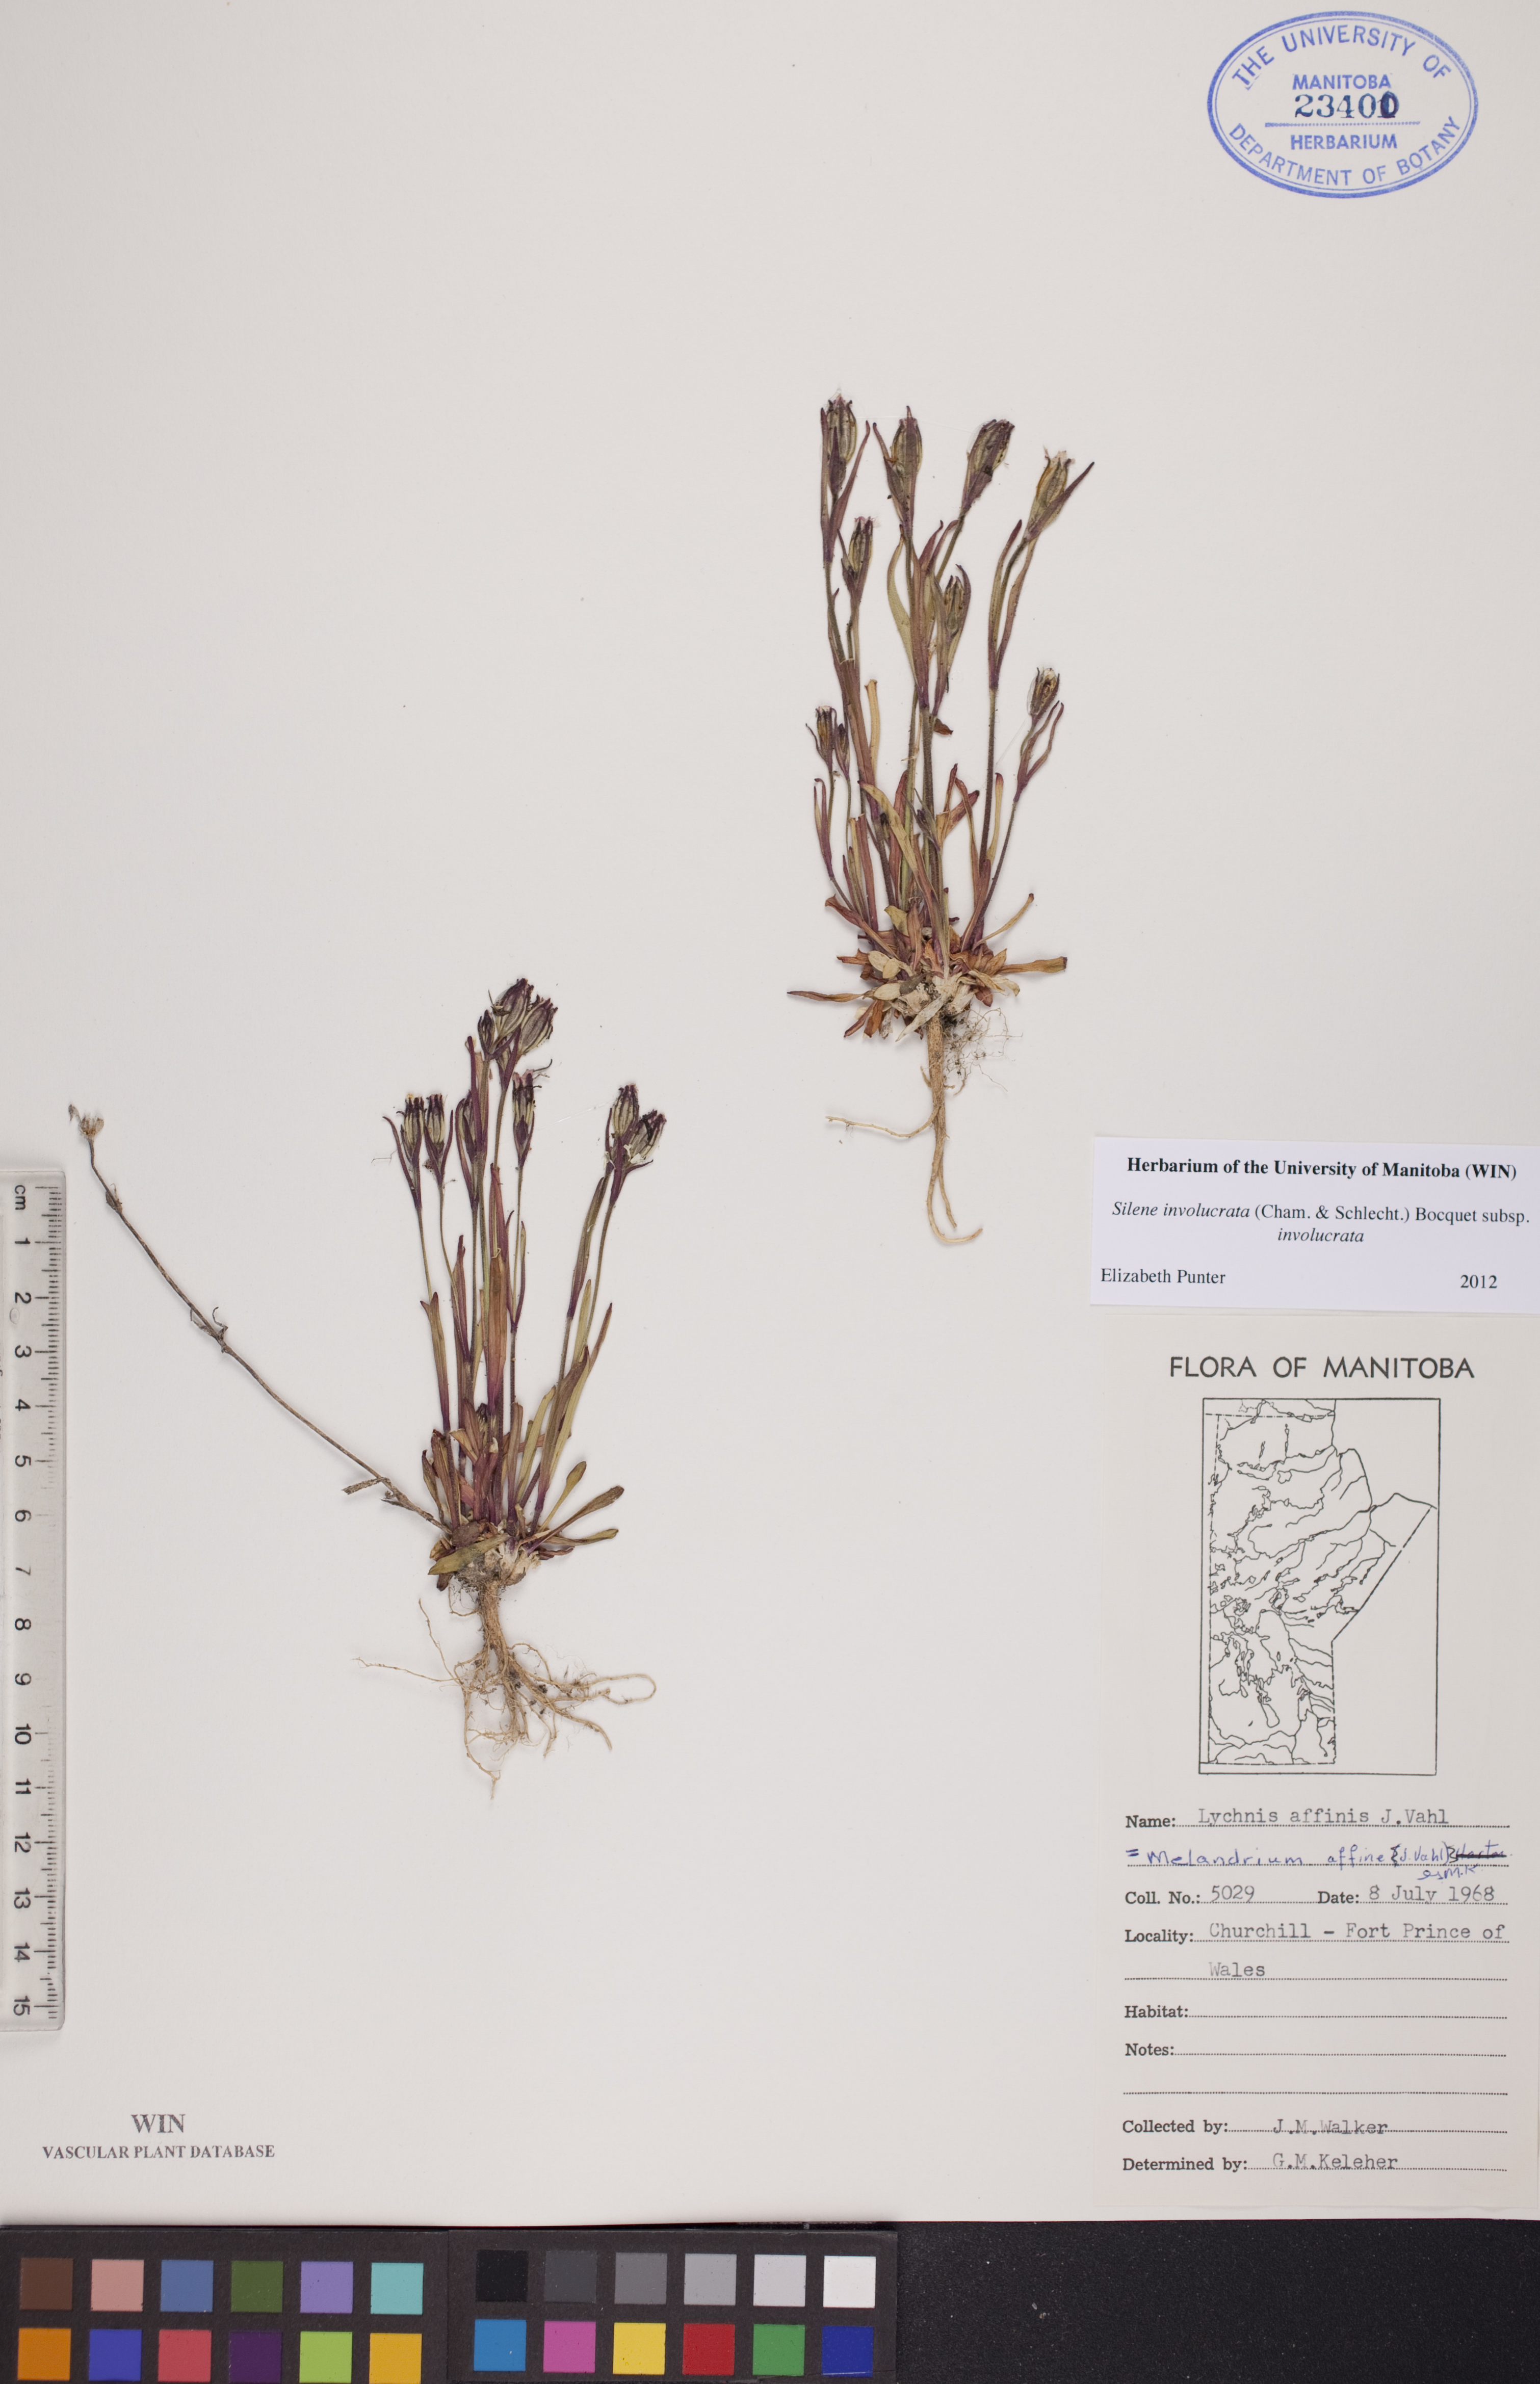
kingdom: Plantae
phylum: Tracheophyta
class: Magnoliopsida
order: Caryophyllales
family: Caryophyllaceae
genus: Silene
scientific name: Silene involucrata
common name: Greater arctic campion
